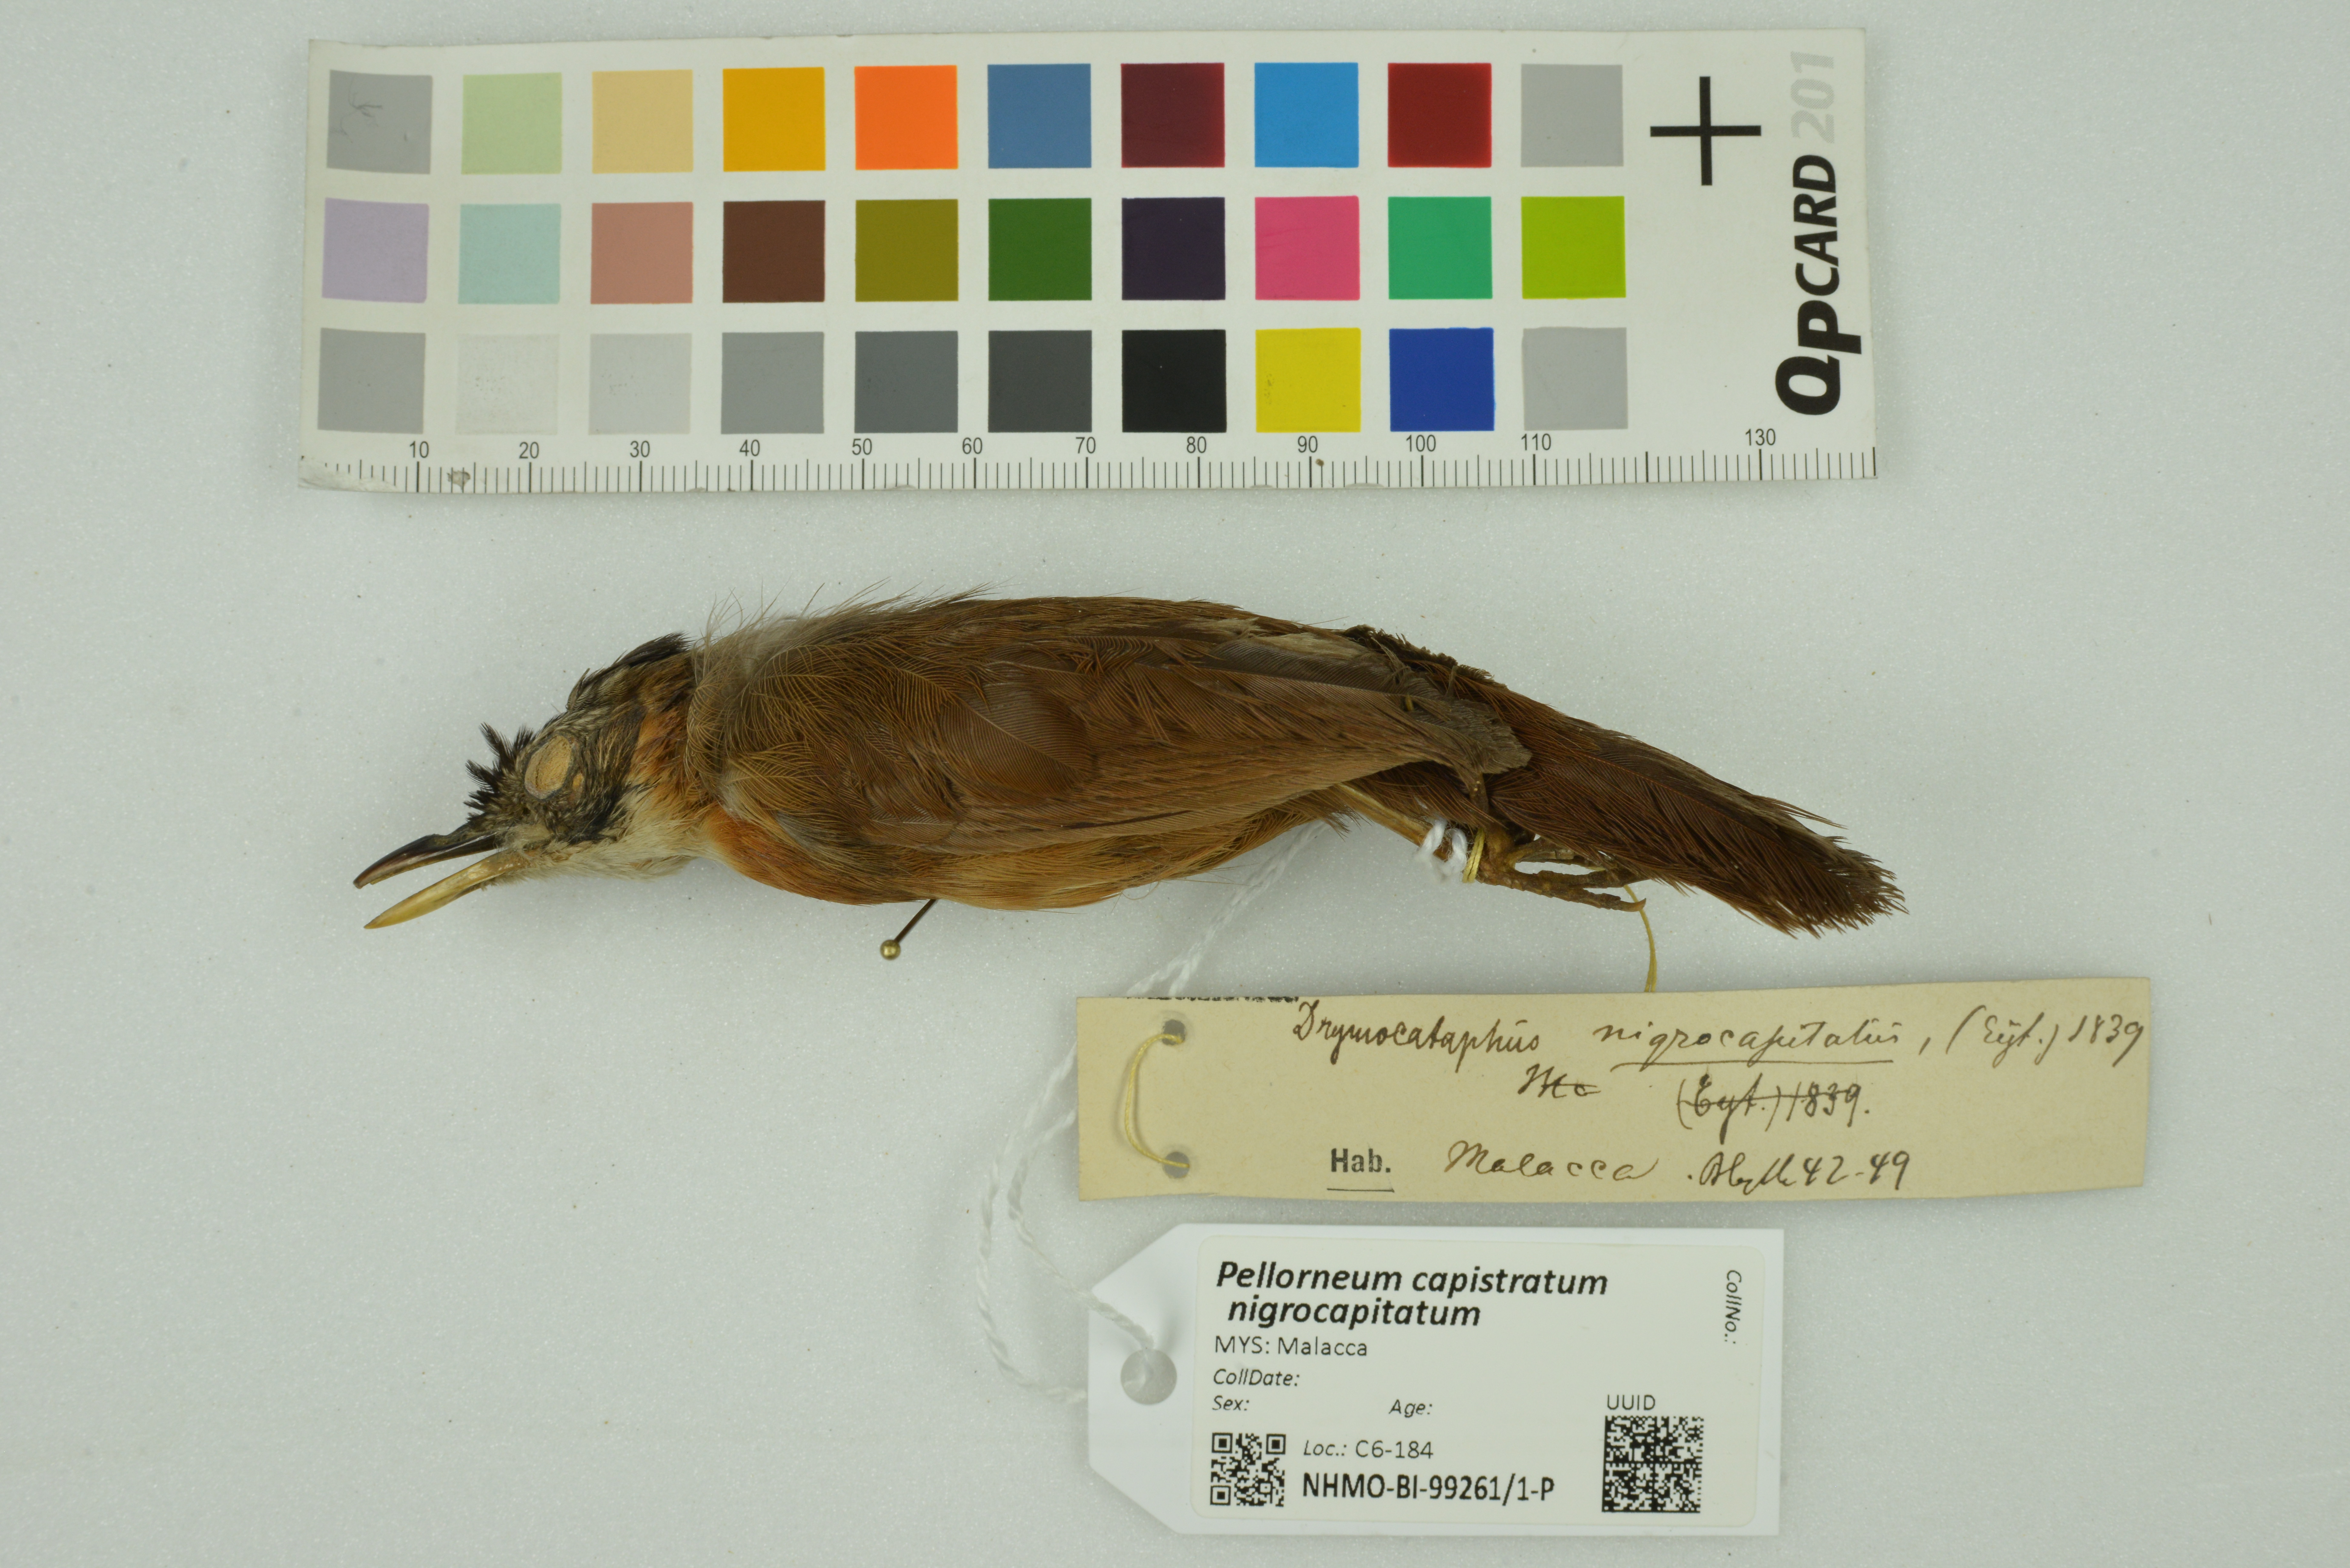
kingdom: Animalia
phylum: Chordata
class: Aves
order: Passeriformes
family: Pellorneidae
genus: Pellorneum
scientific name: Pellorneum capistratum
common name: Black-capped babbler
